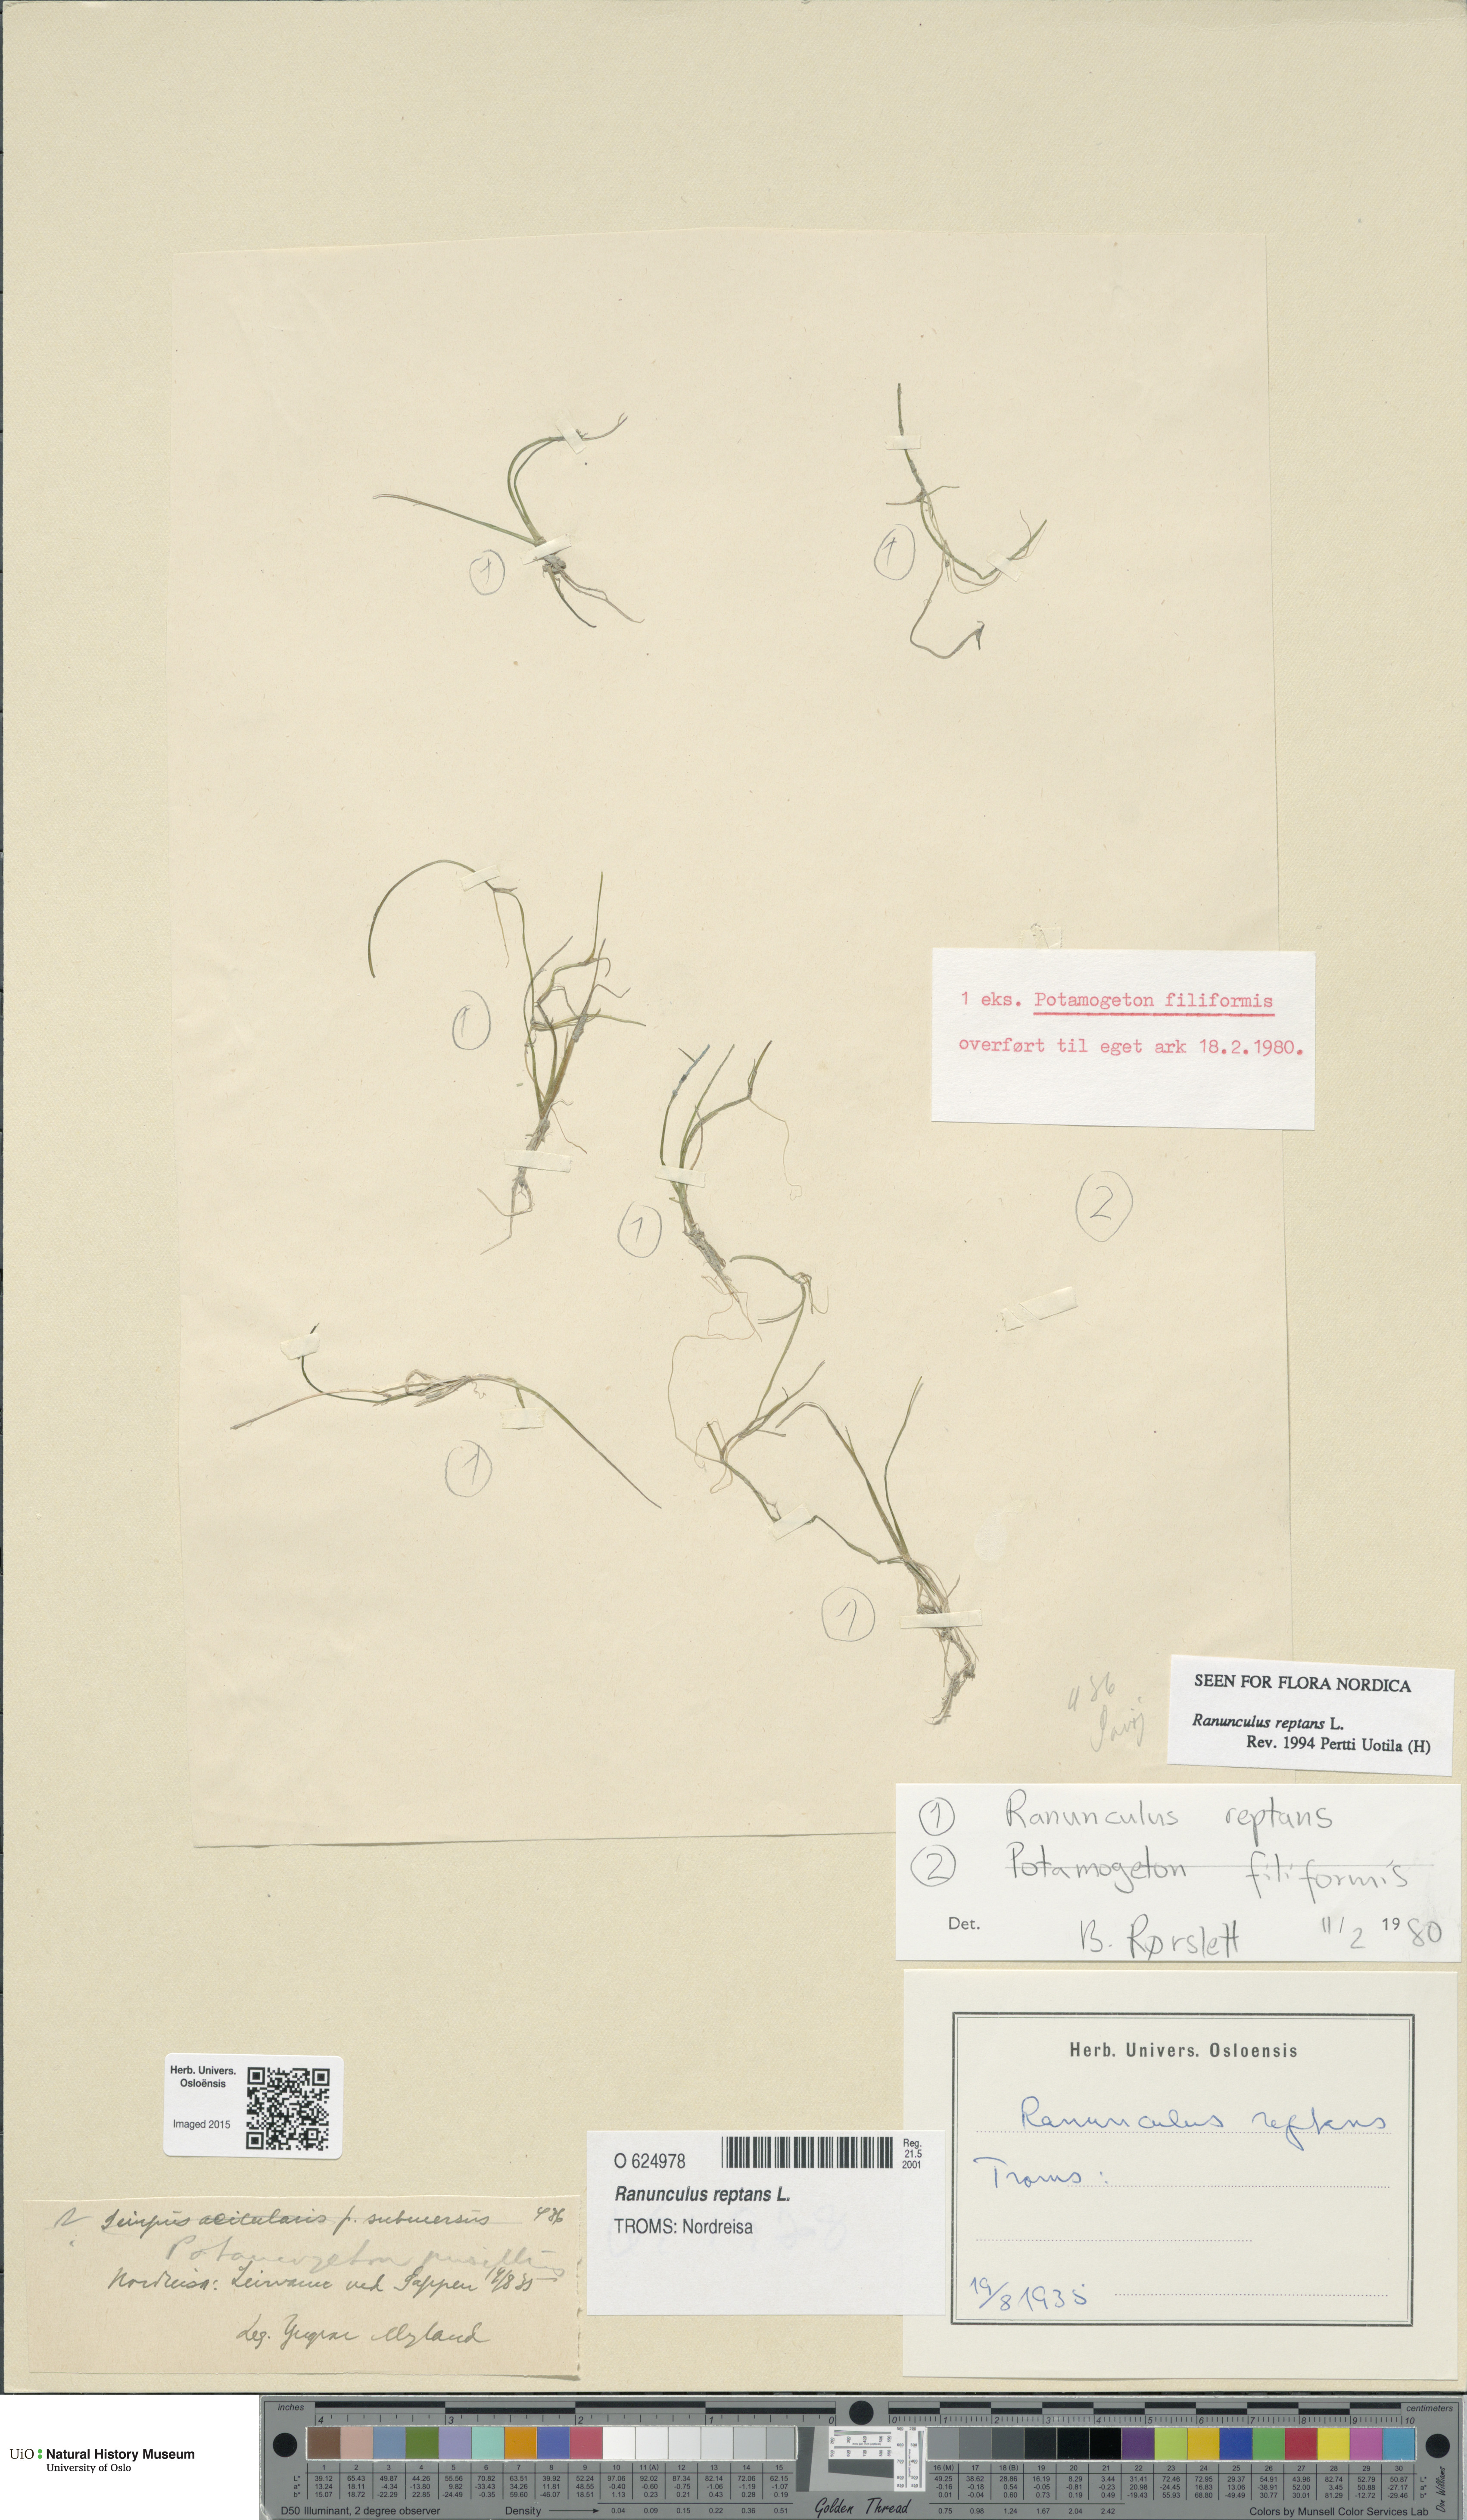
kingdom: Plantae
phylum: Tracheophyta
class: Magnoliopsida
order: Ranunculales
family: Ranunculaceae
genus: Ranunculus
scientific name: Ranunculus reptans
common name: Creeping spearwort
